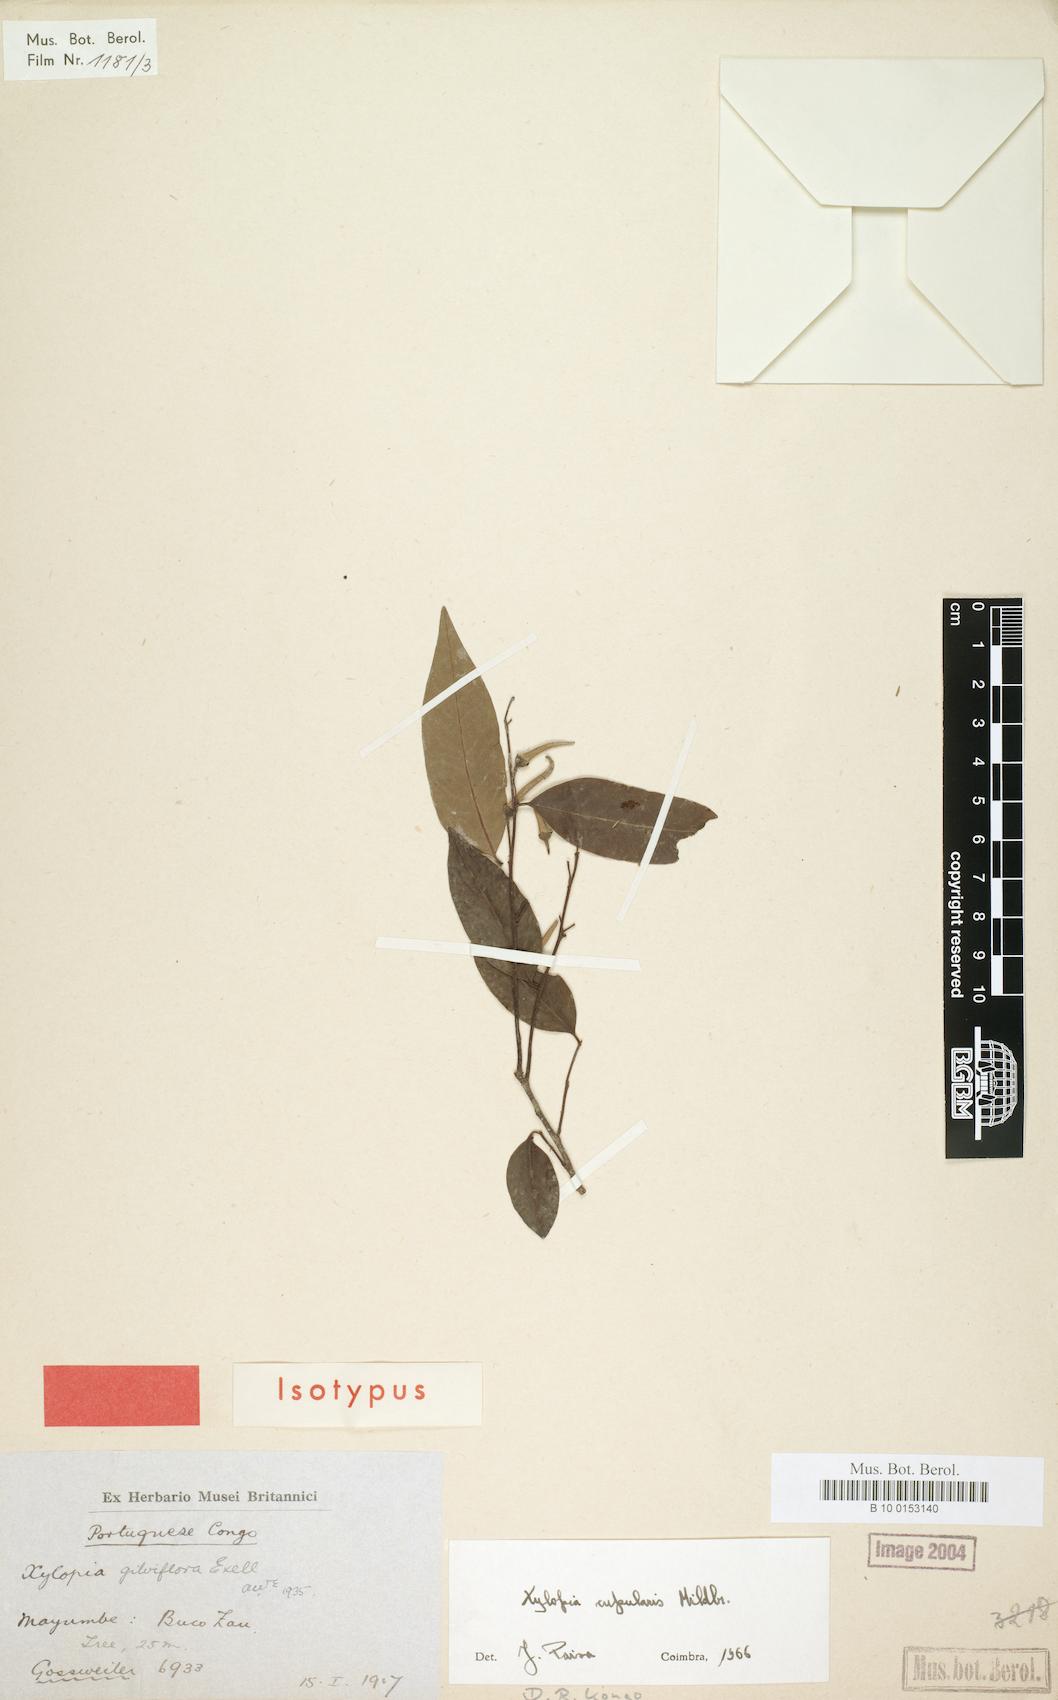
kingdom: Plantae
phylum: Tracheophyta
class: Magnoliopsida
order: Magnoliales
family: Annonaceae
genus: Xylopia
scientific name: Xylopia cupularis
